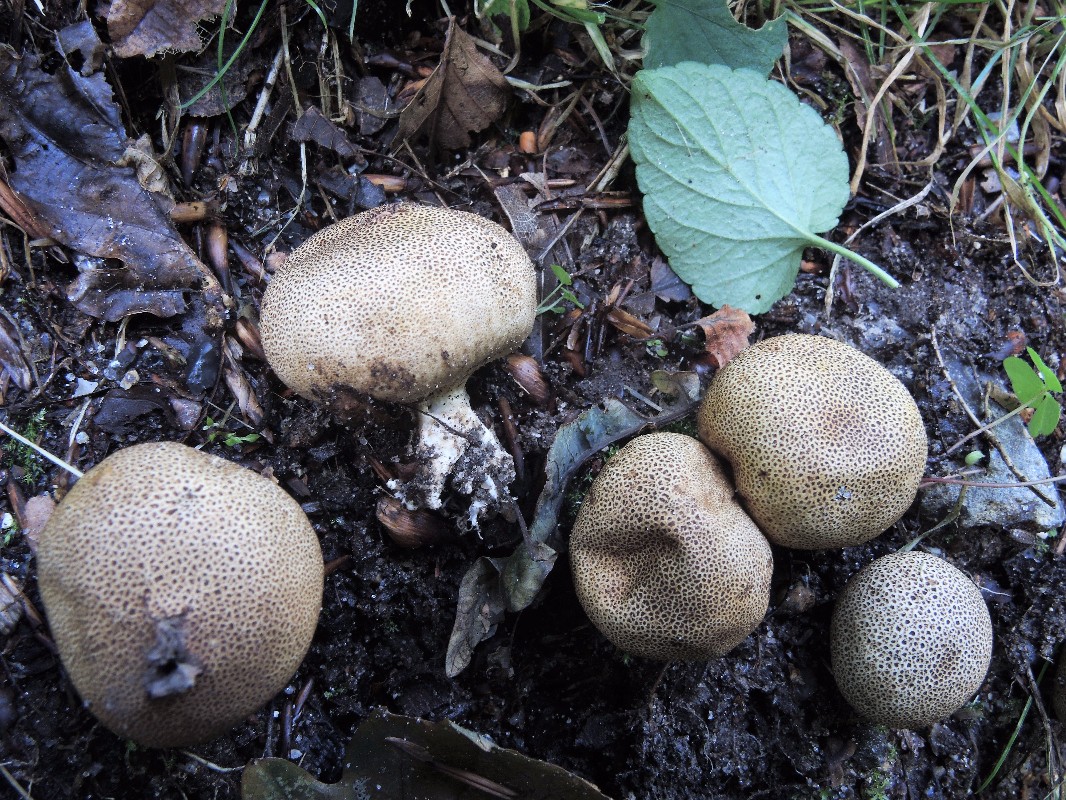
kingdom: Fungi
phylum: Basidiomycota
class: Agaricomycetes
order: Boletales
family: Sclerodermataceae
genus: Scleroderma
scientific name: Scleroderma areolatum
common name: plettet bruskbold
